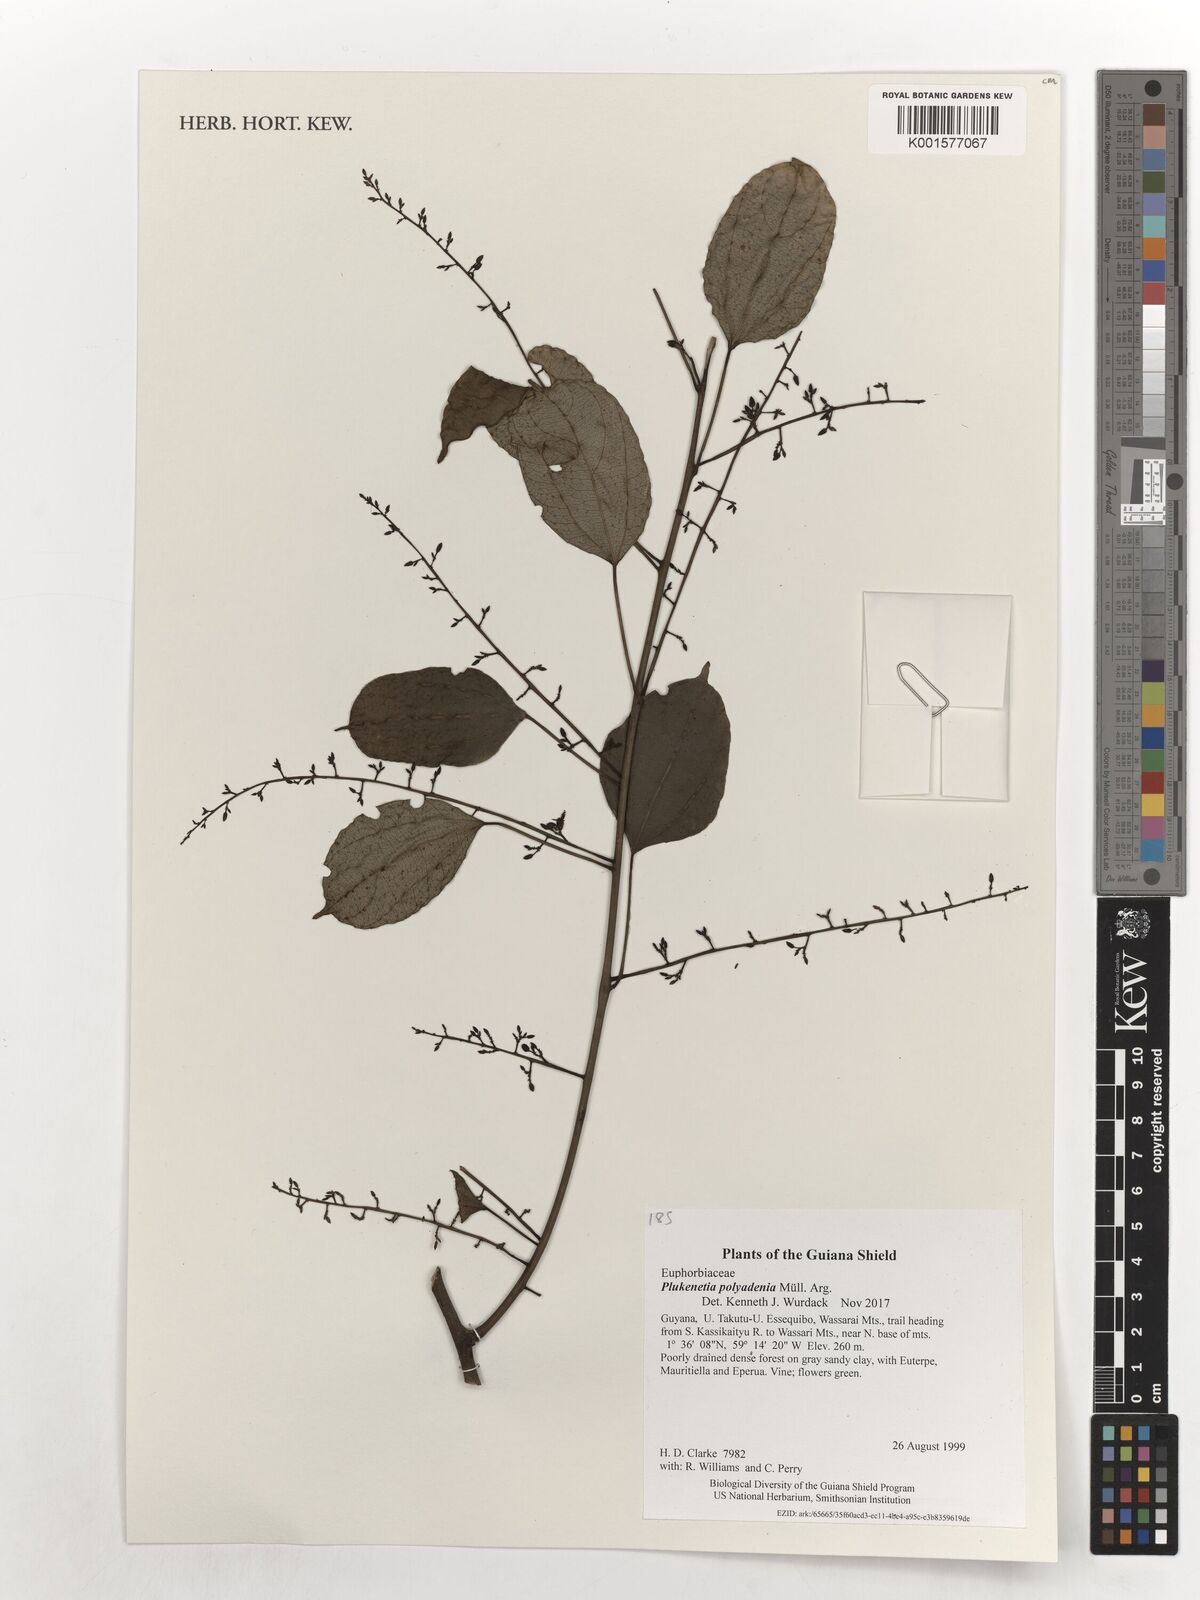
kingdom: Plantae
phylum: Tracheophyta
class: Magnoliopsida
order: Malpighiales
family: Euphorbiaceae
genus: Plukenetia
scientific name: Plukenetia polyadenia
